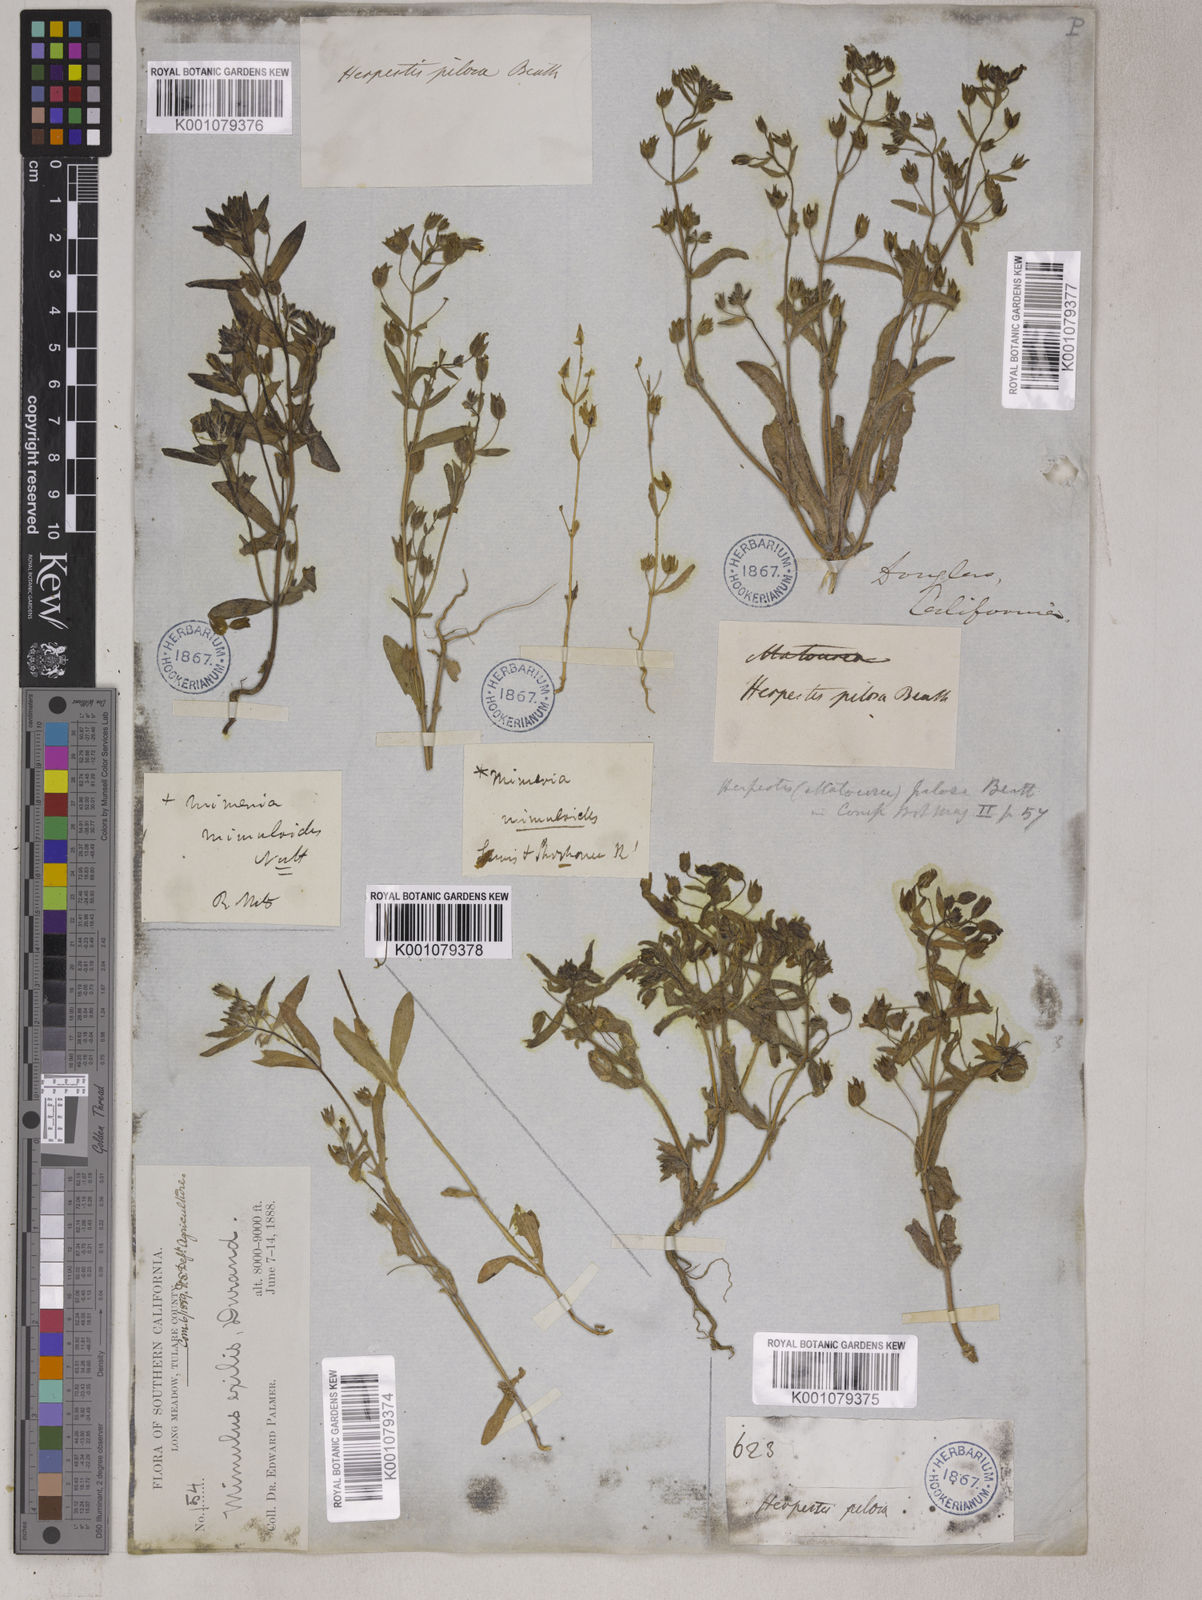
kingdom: Plantae
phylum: Tracheophyta
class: Magnoliopsida
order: Lamiales
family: Phrymaceae
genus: Mimetanthe
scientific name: Mimetanthe pilosa
